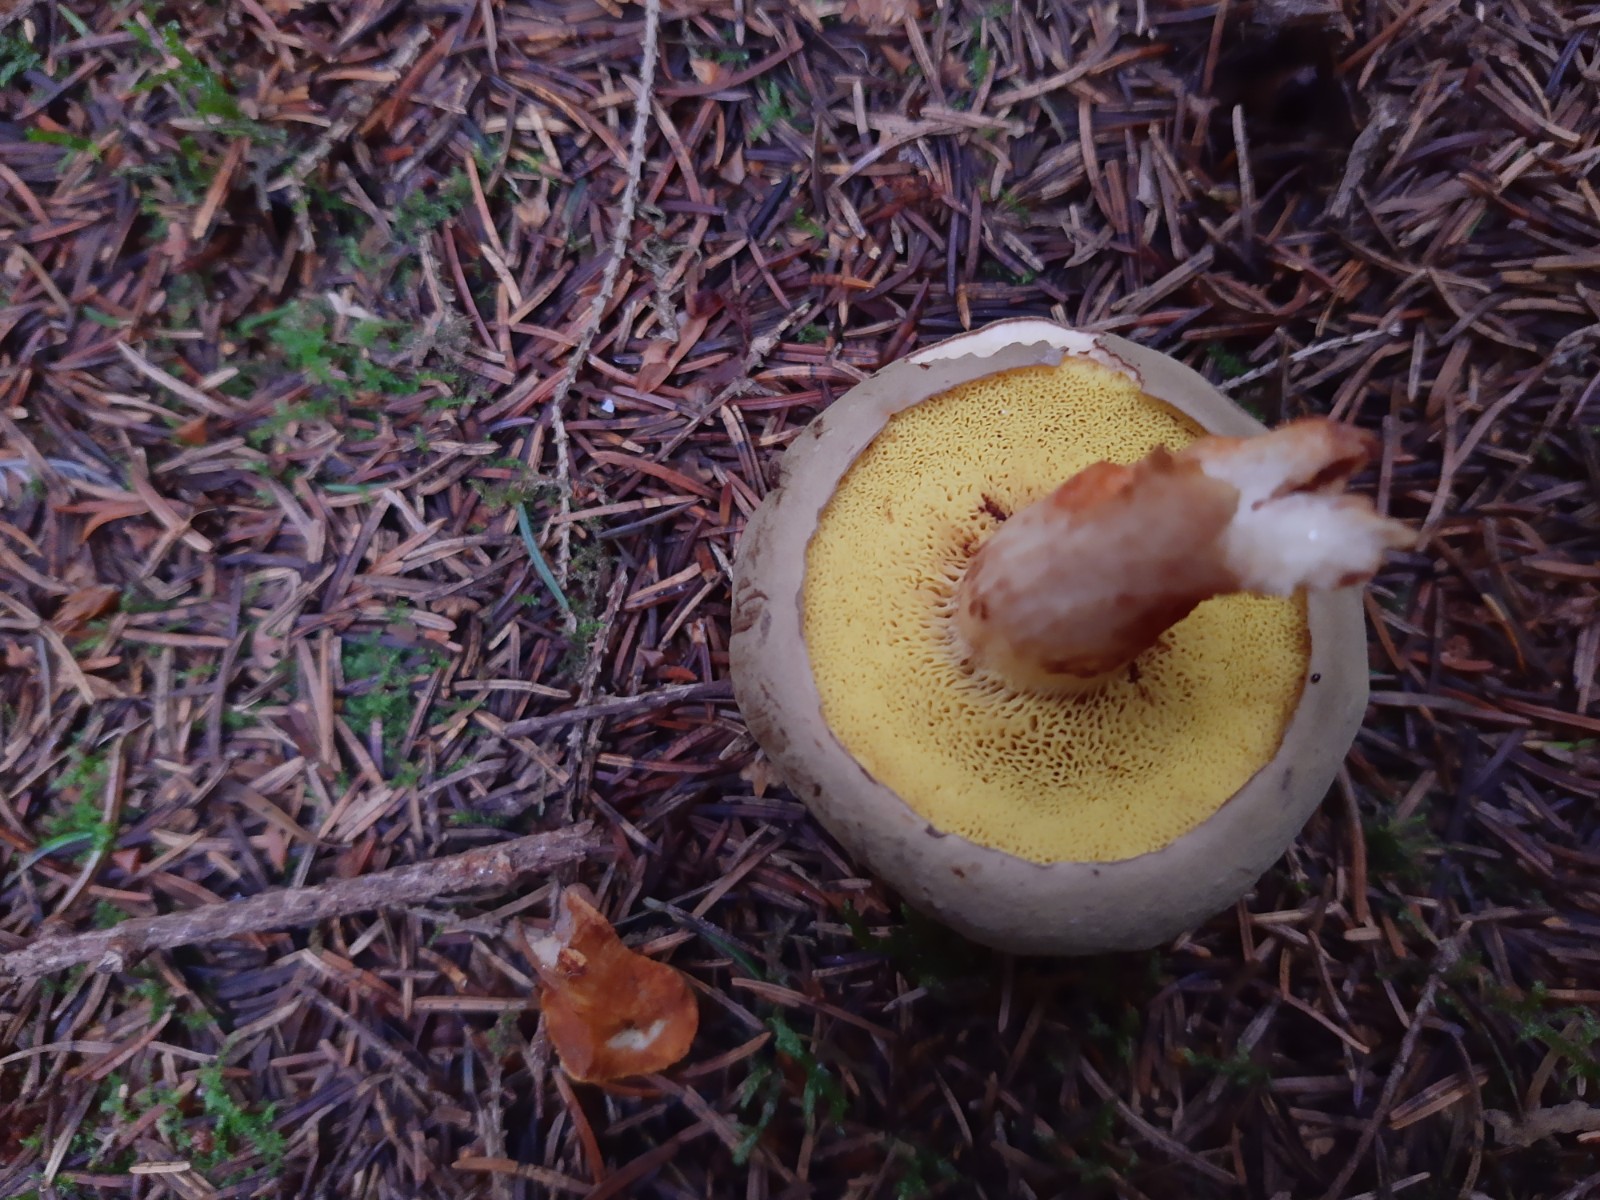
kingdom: Fungi
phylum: Basidiomycota
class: Agaricomycetes
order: Boletales
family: Boletaceae
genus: Xerocomus
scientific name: Xerocomus
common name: filtrørhat
